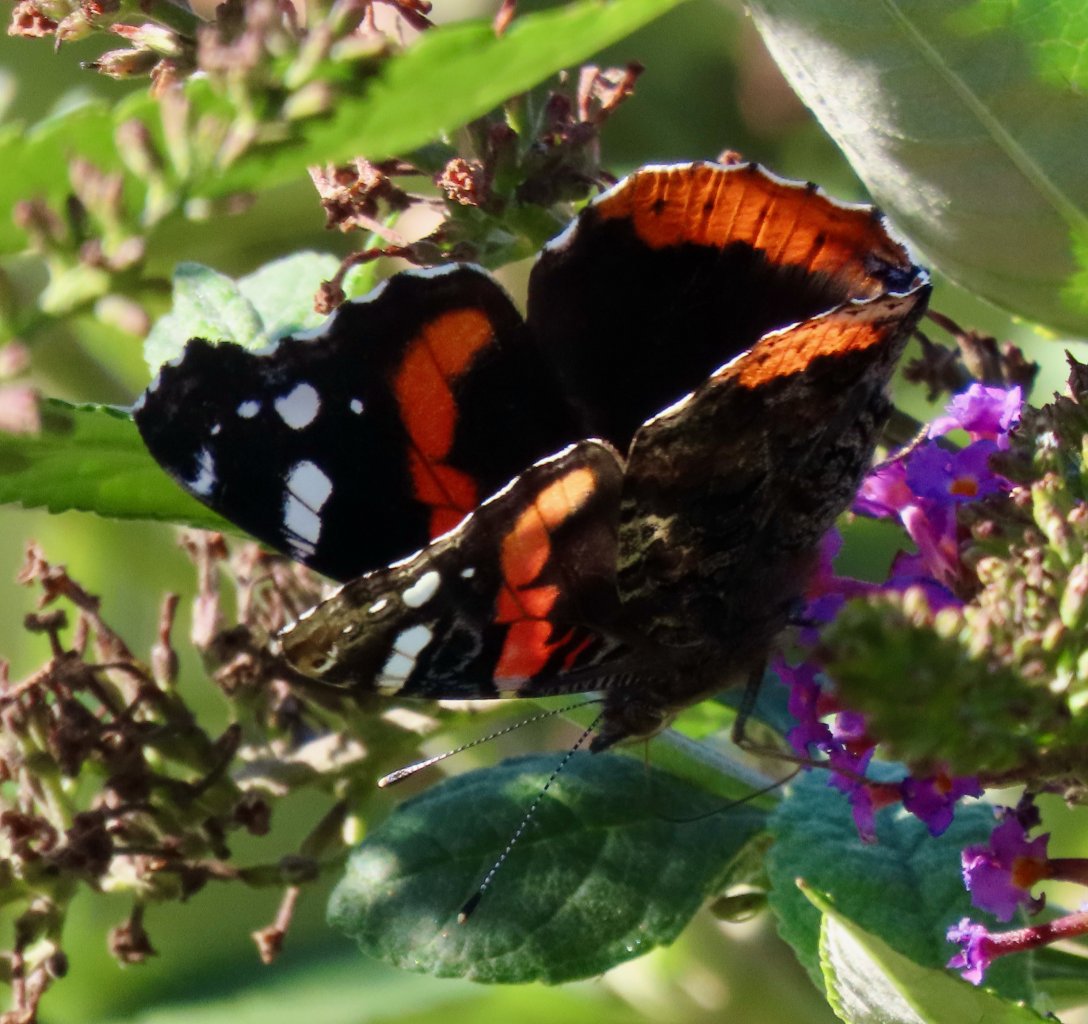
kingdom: Animalia
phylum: Arthropoda
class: Insecta
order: Lepidoptera
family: Nymphalidae
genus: Vanessa
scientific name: Vanessa atalanta
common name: Red Admiral
